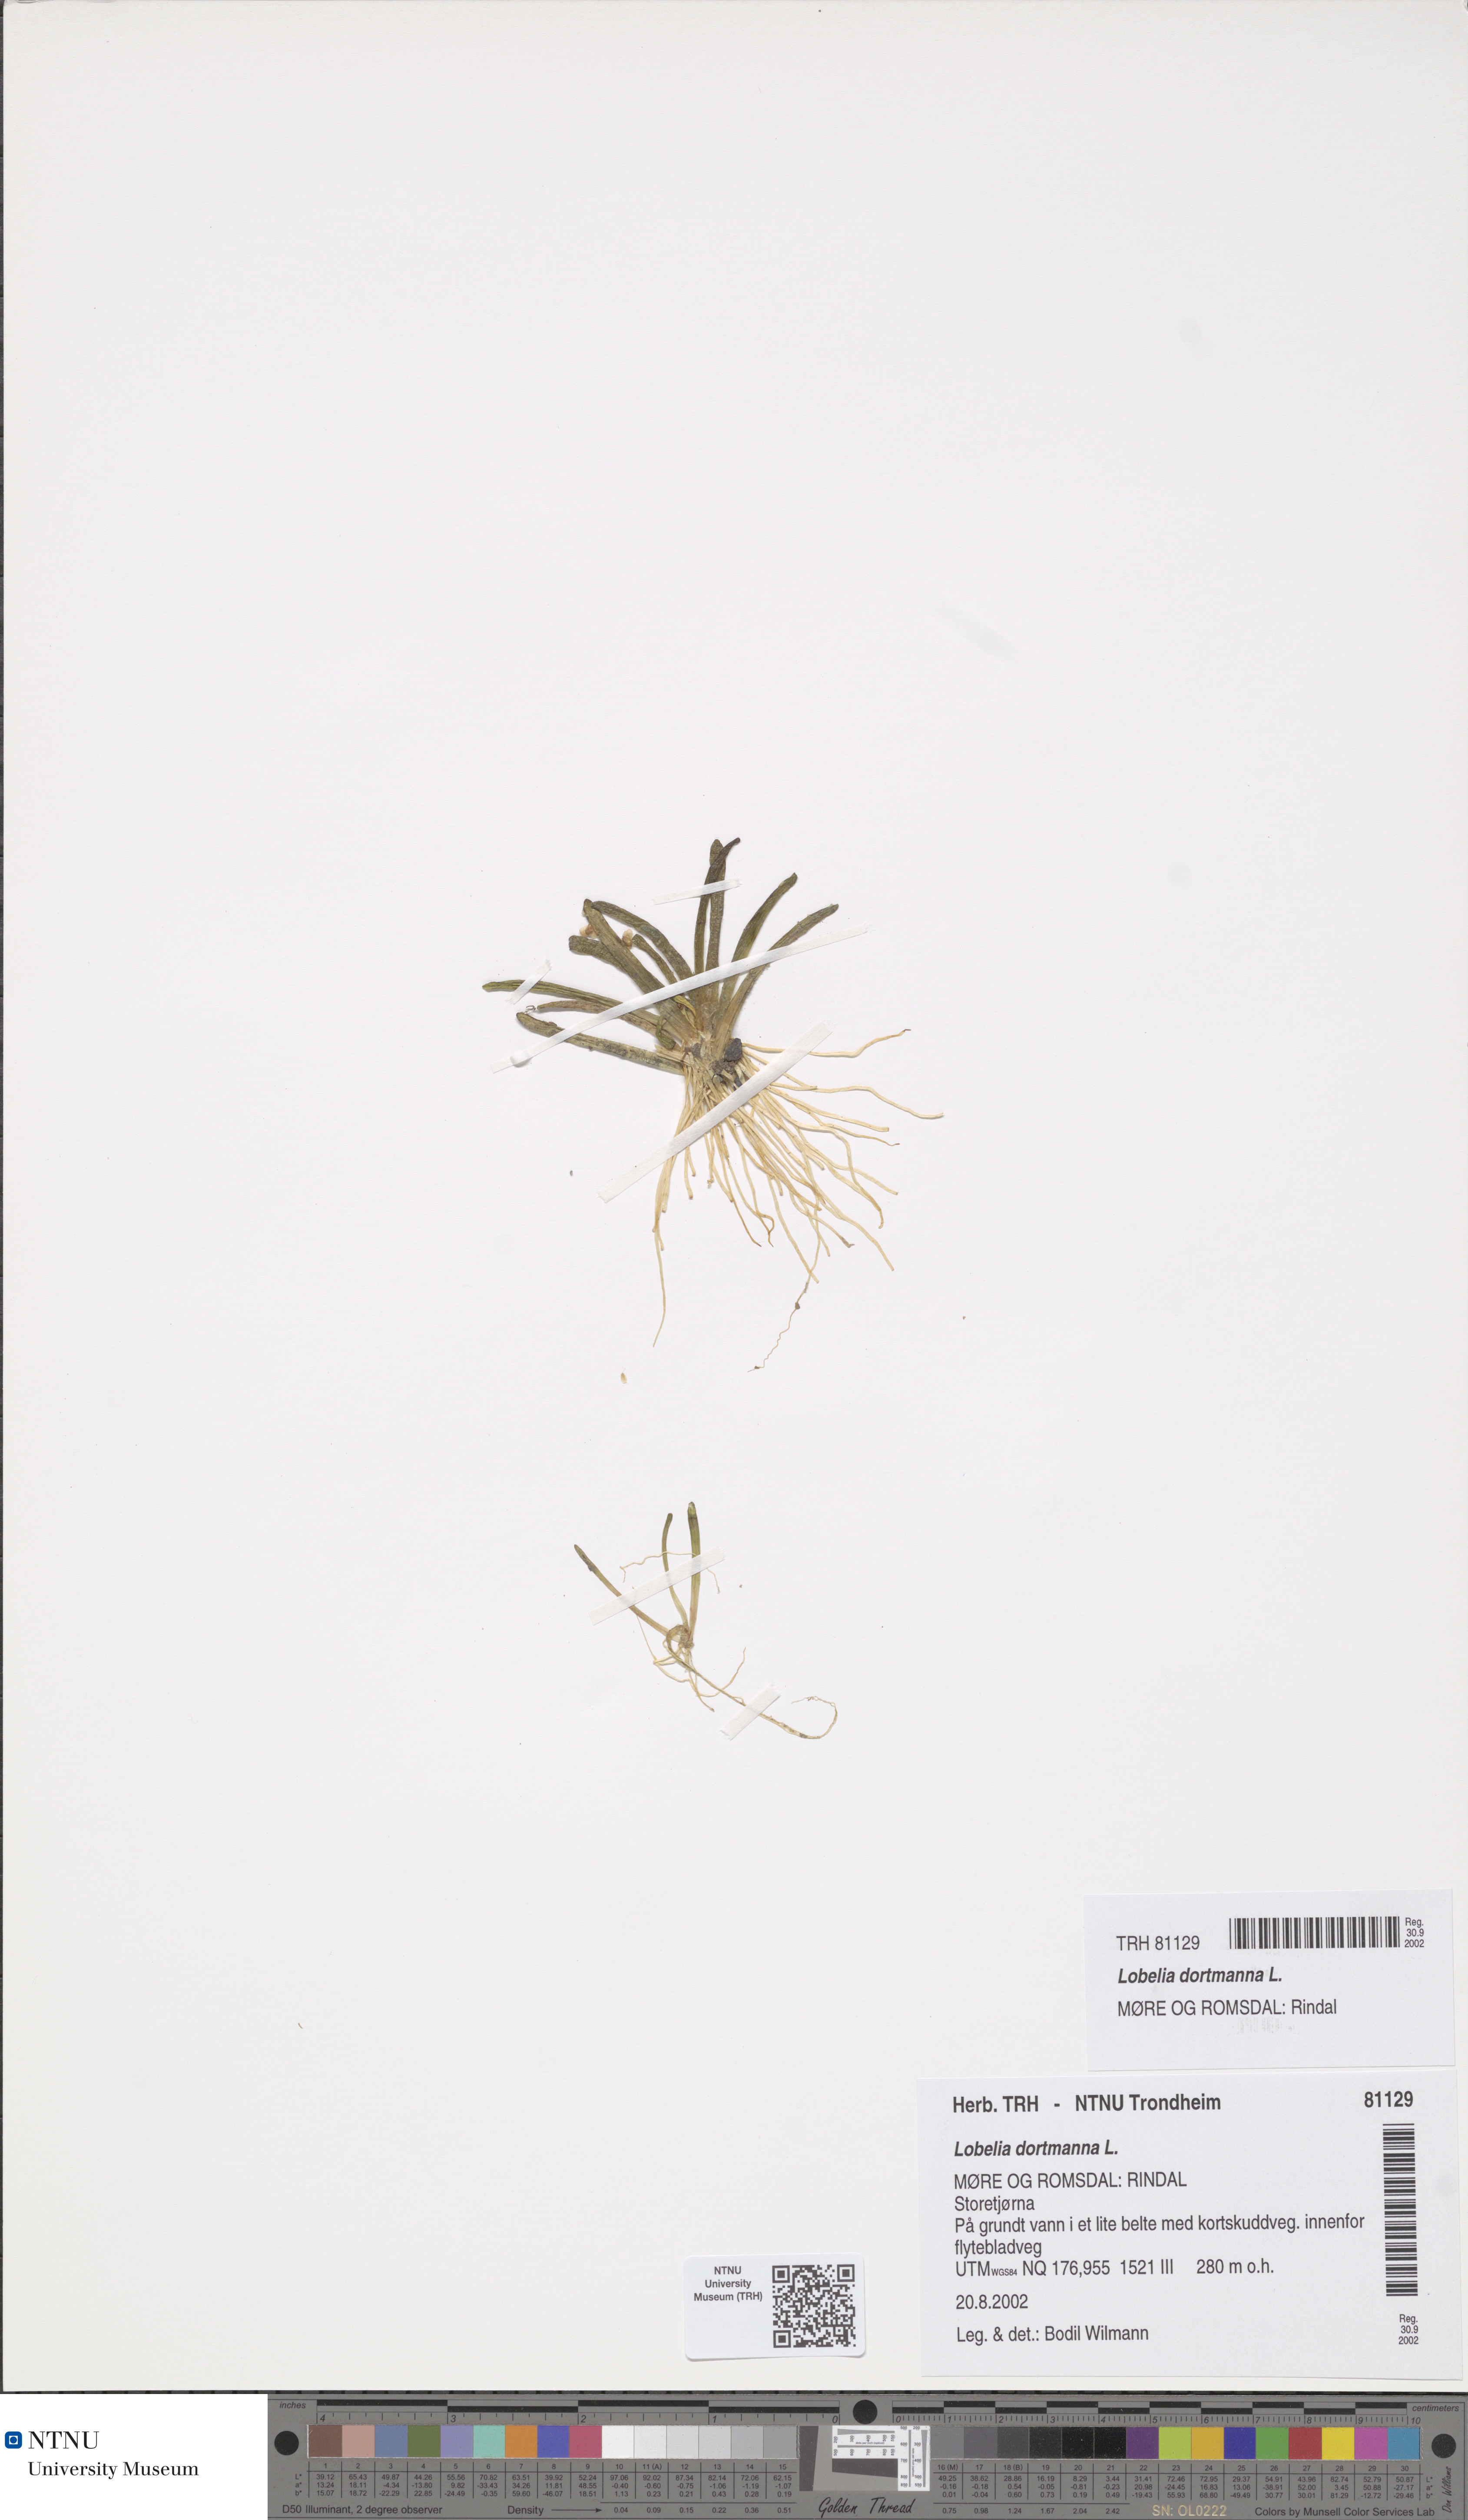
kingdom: Plantae
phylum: Tracheophyta
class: Magnoliopsida
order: Asterales
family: Campanulaceae
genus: Lobelia
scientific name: Lobelia dortmanna
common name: Water lobelia
